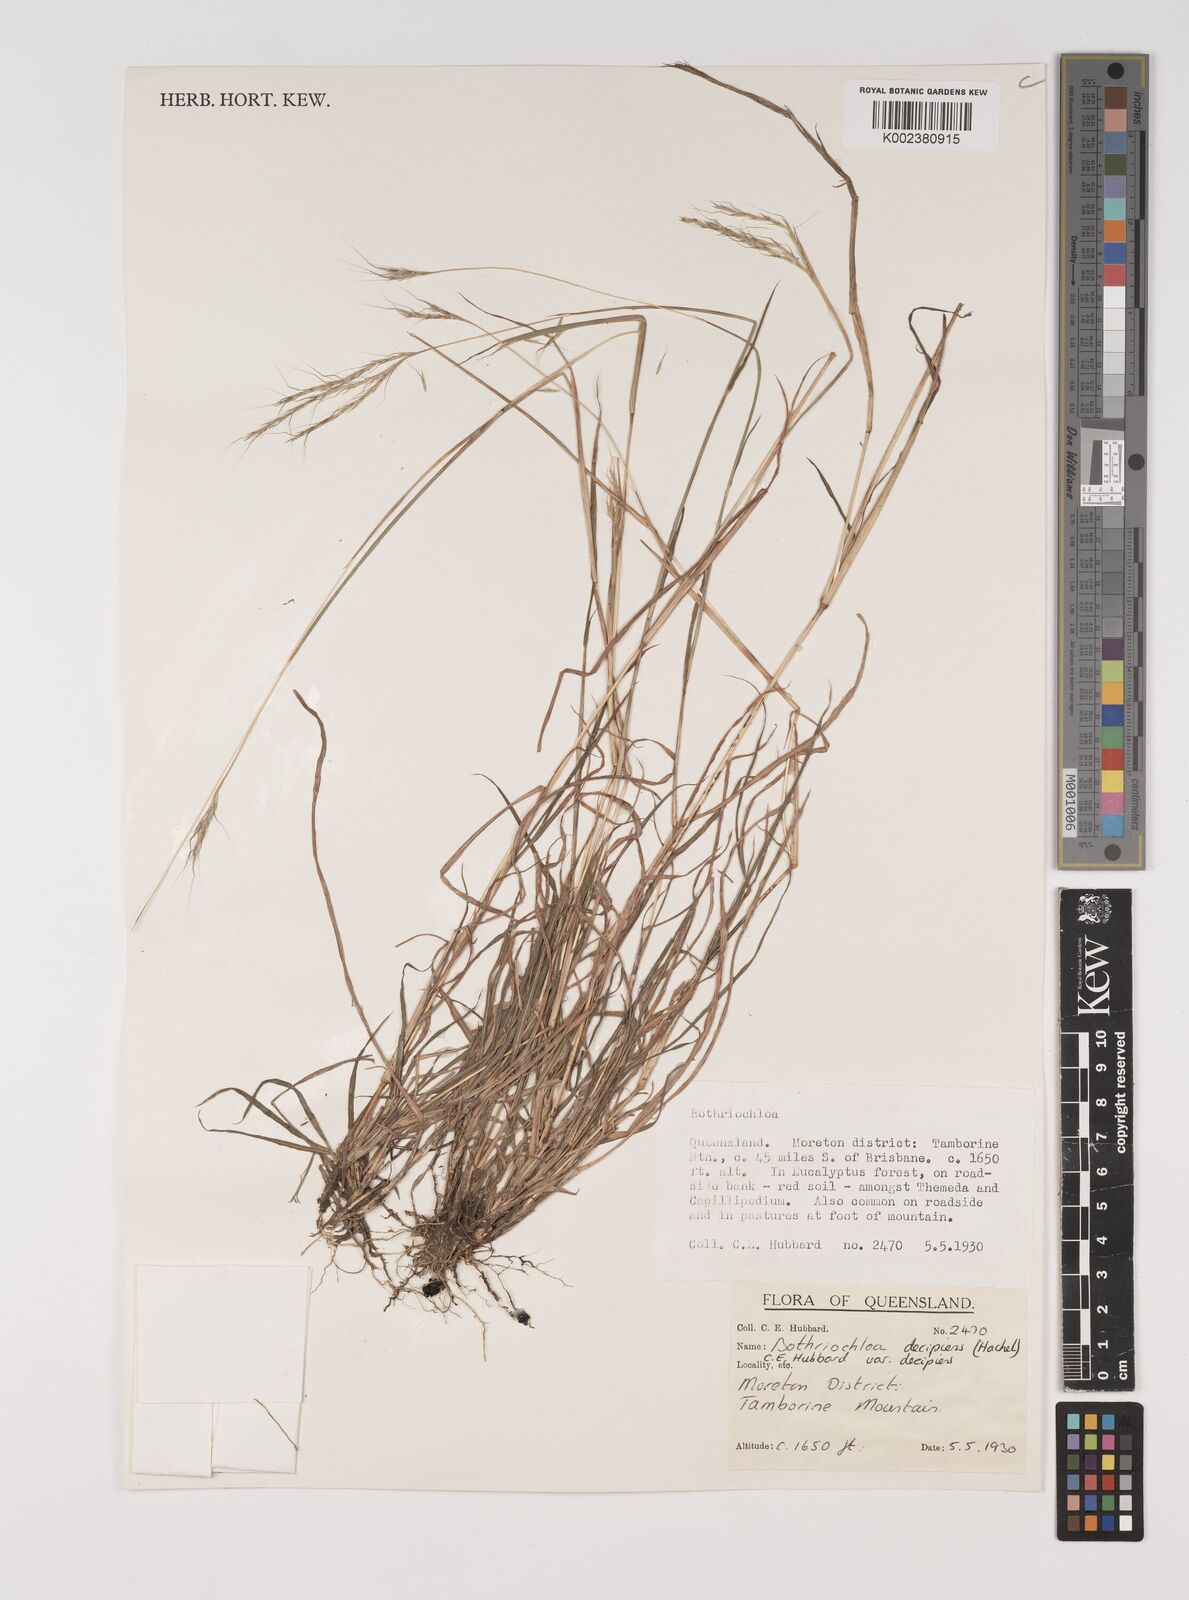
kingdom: Plantae
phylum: Tracheophyta
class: Liliopsida
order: Poales
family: Poaceae
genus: Bothriochloa
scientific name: Bothriochloa decipiens
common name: Pitted-bluegrass
